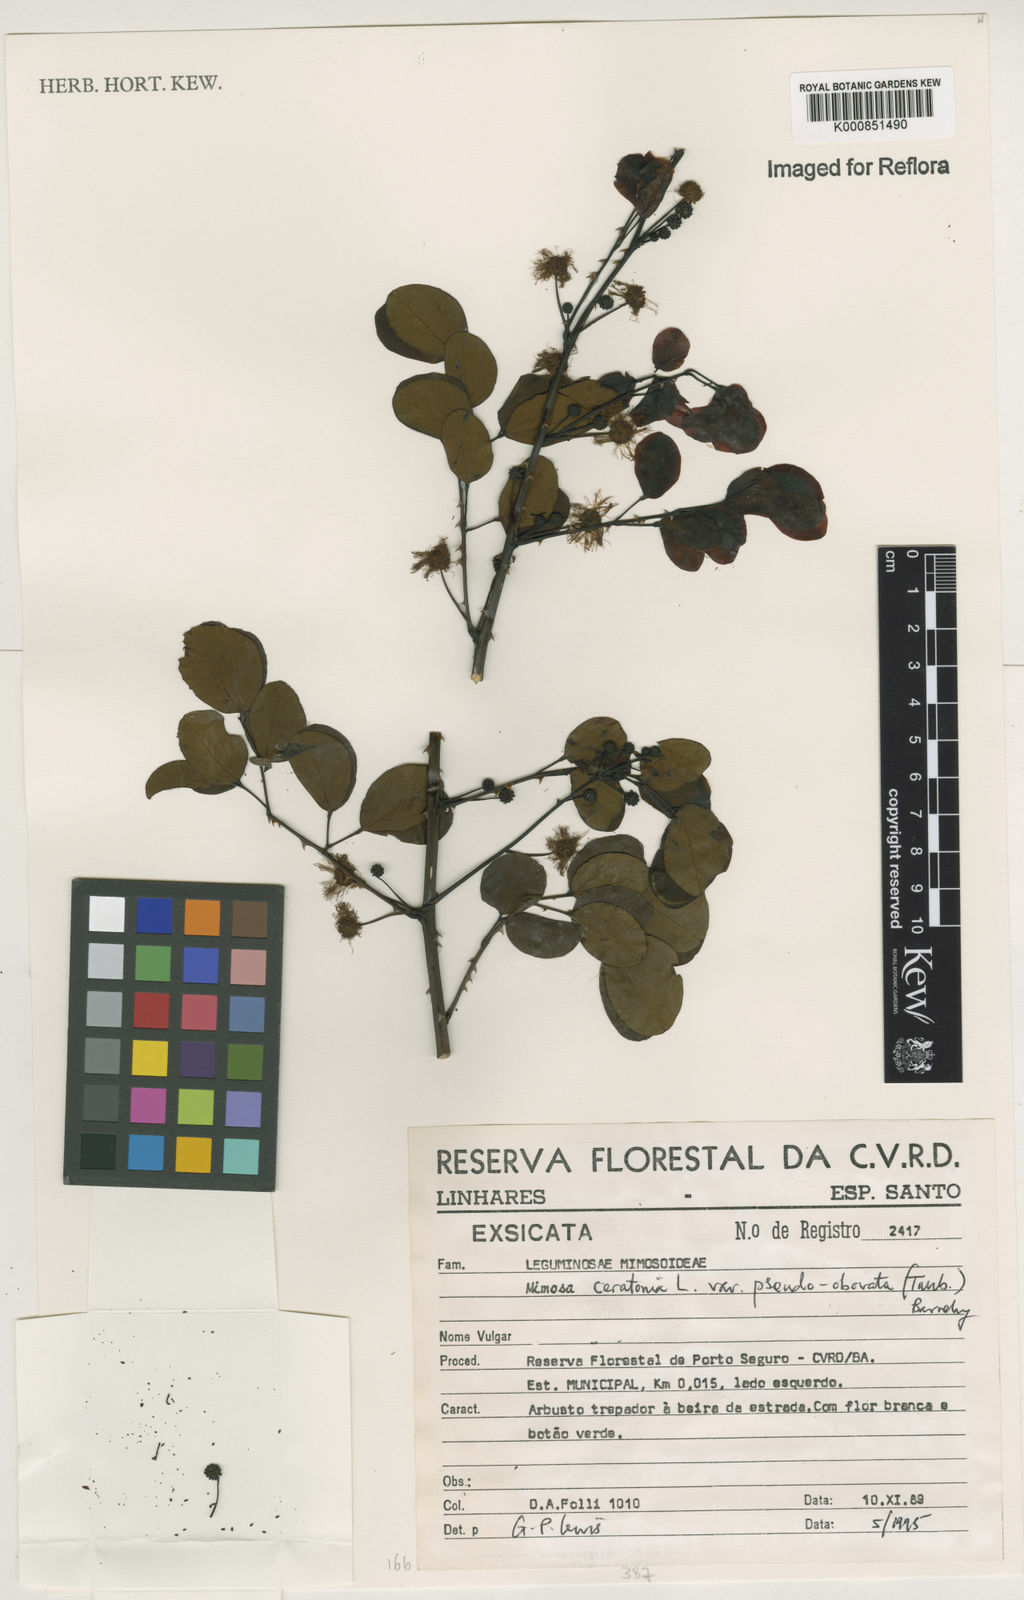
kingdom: Plantae
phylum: Tracheophyta
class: Magnoliopsida
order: Fabales
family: Fabaceae
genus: Mimosa
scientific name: Mimosa ceratonia
